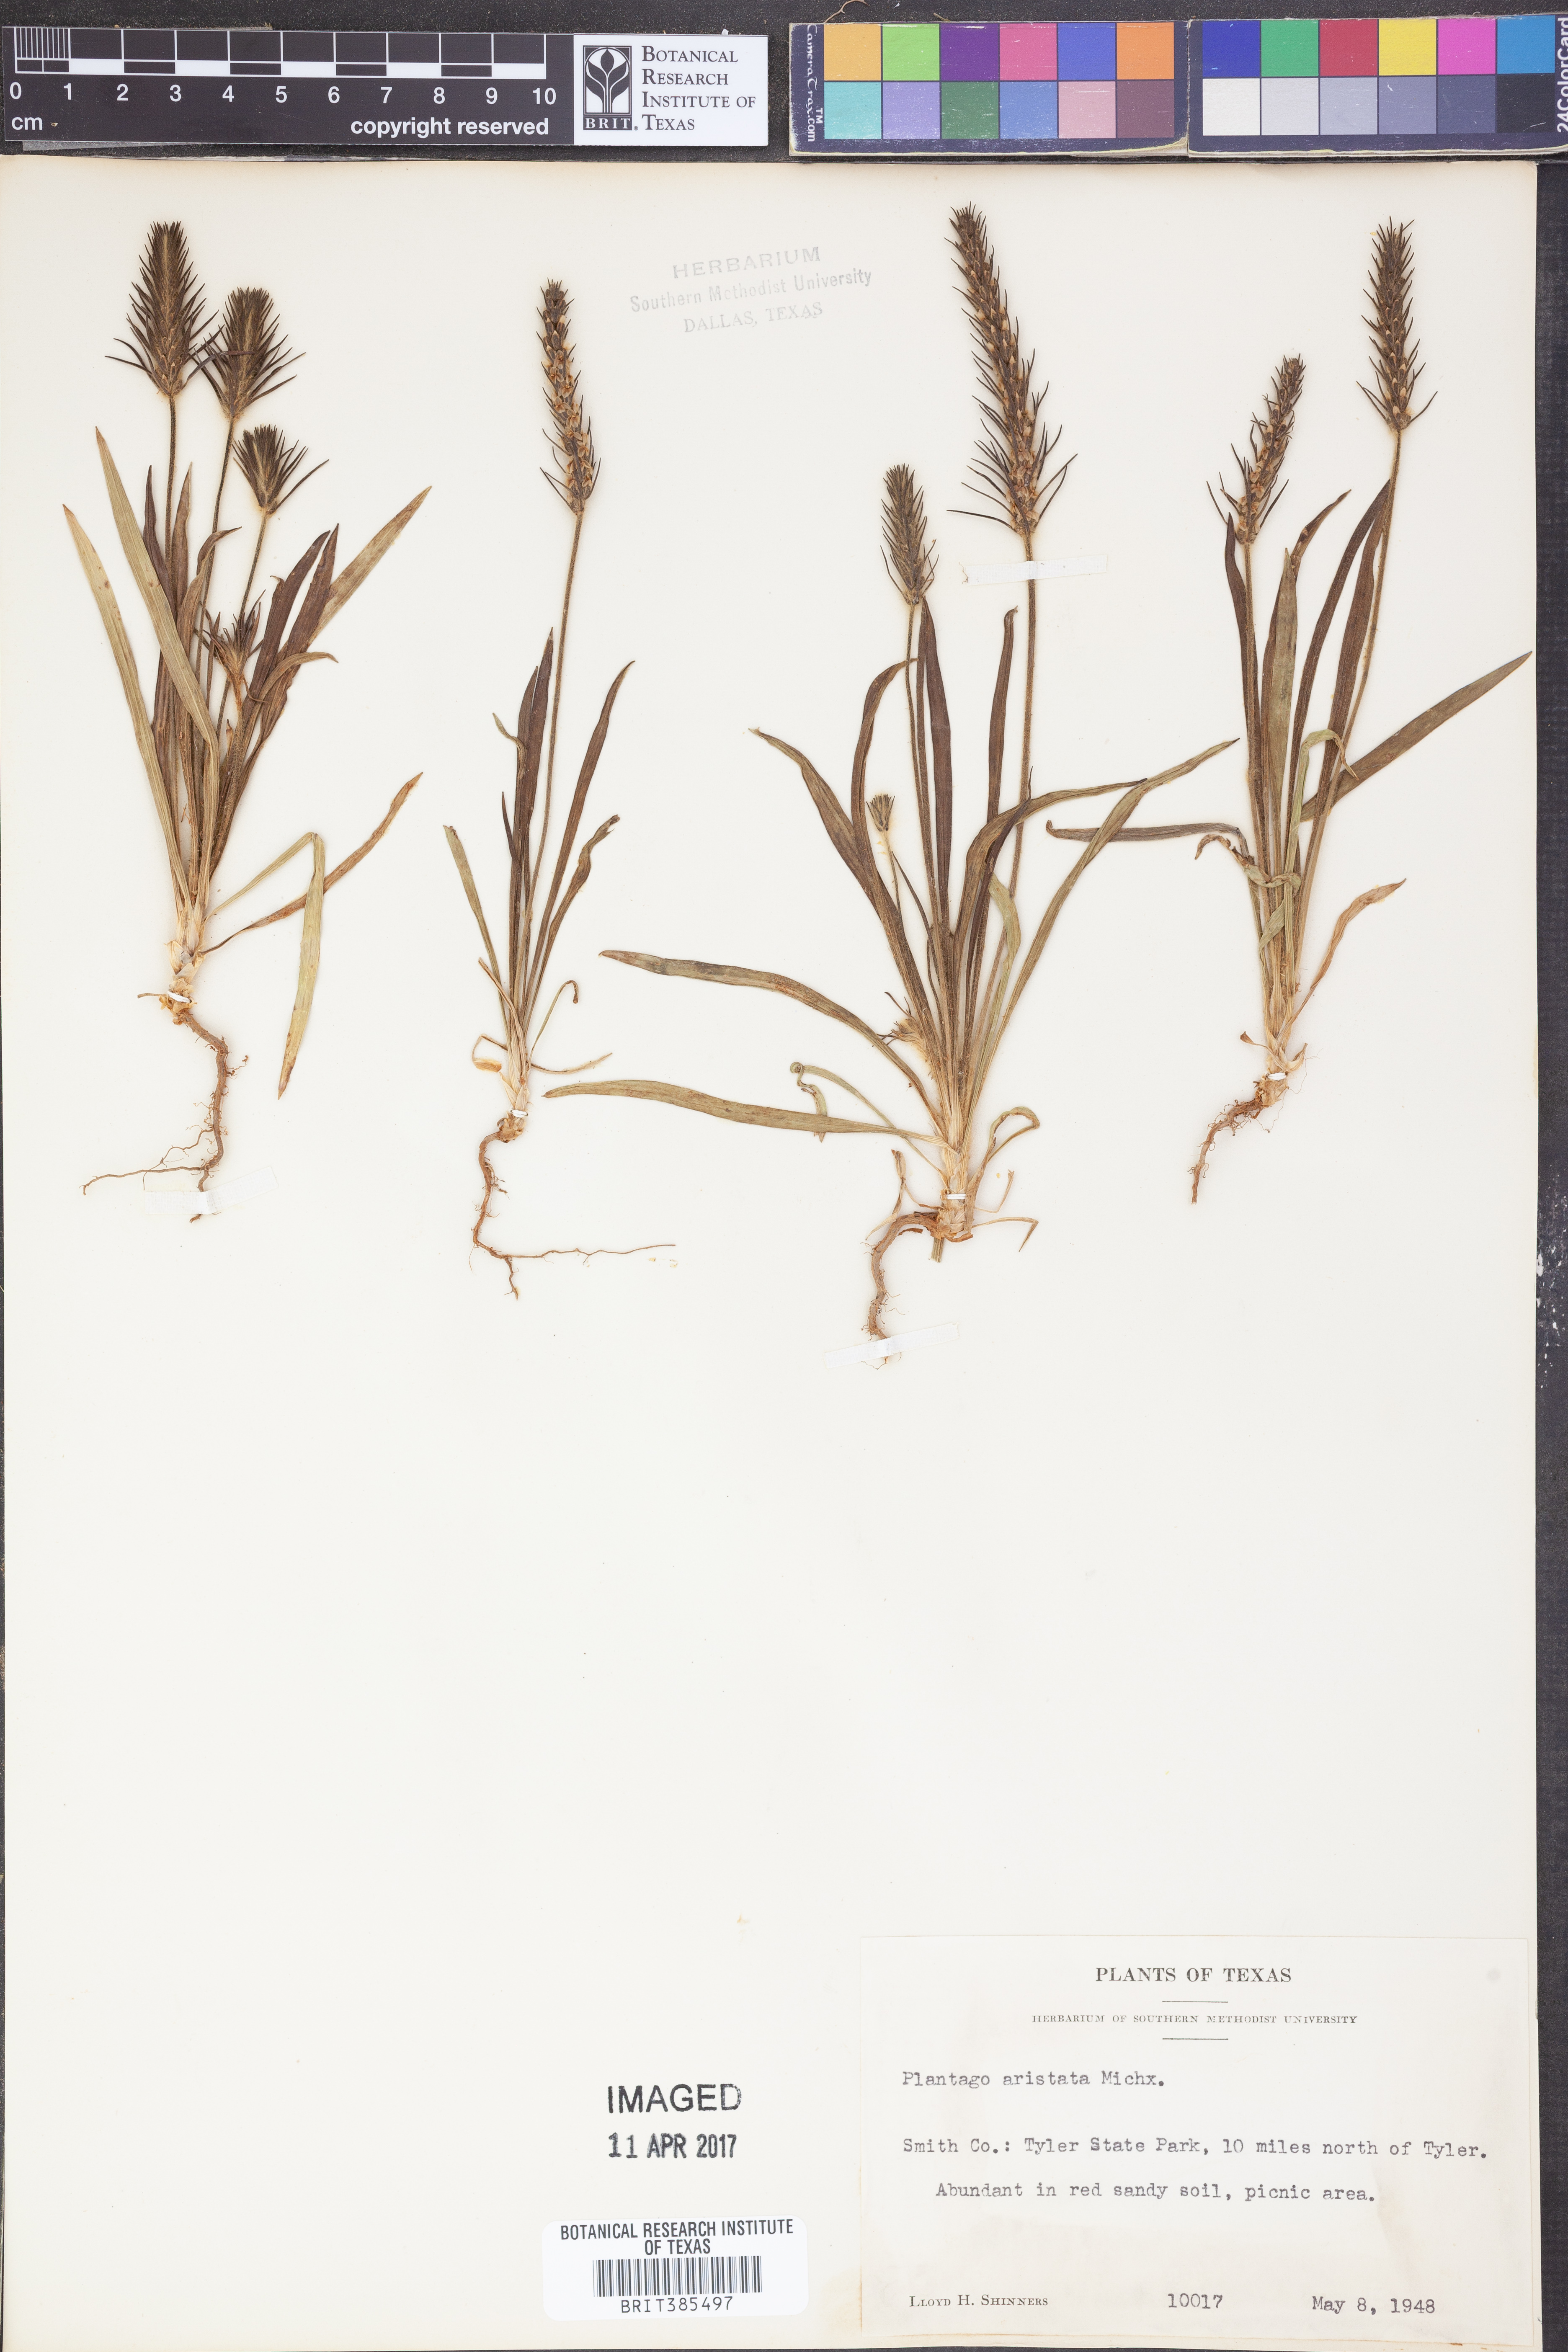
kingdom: Plantae
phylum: Tracheophyta
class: Magnoliopsida
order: Lamiales
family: Plantaginaceae
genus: Plantago
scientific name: Plantago aristata
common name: Bracted plantain
